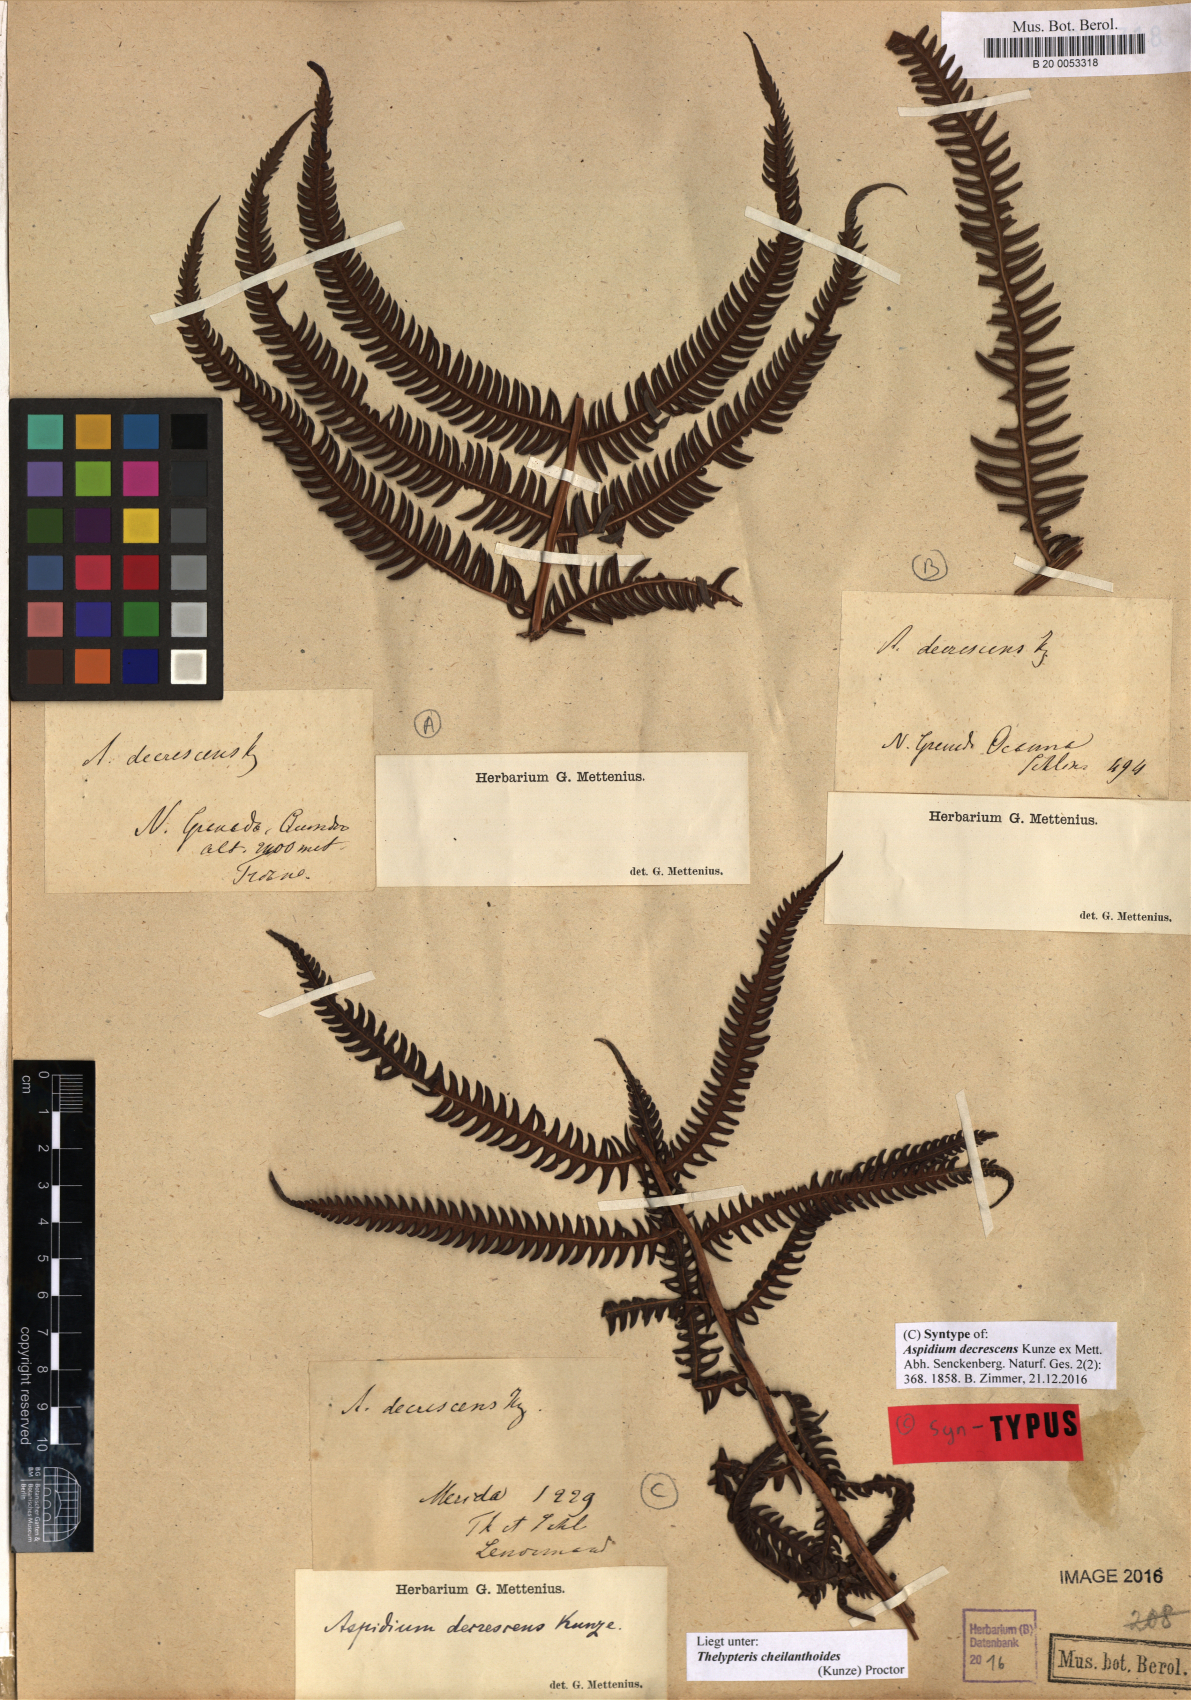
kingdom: Plantae
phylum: Tracheophyta
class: Polypodiopsida
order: Polypodiales
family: Thelypteridaceae
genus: Amauropelta
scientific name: Amauropelta cheilanthoides
